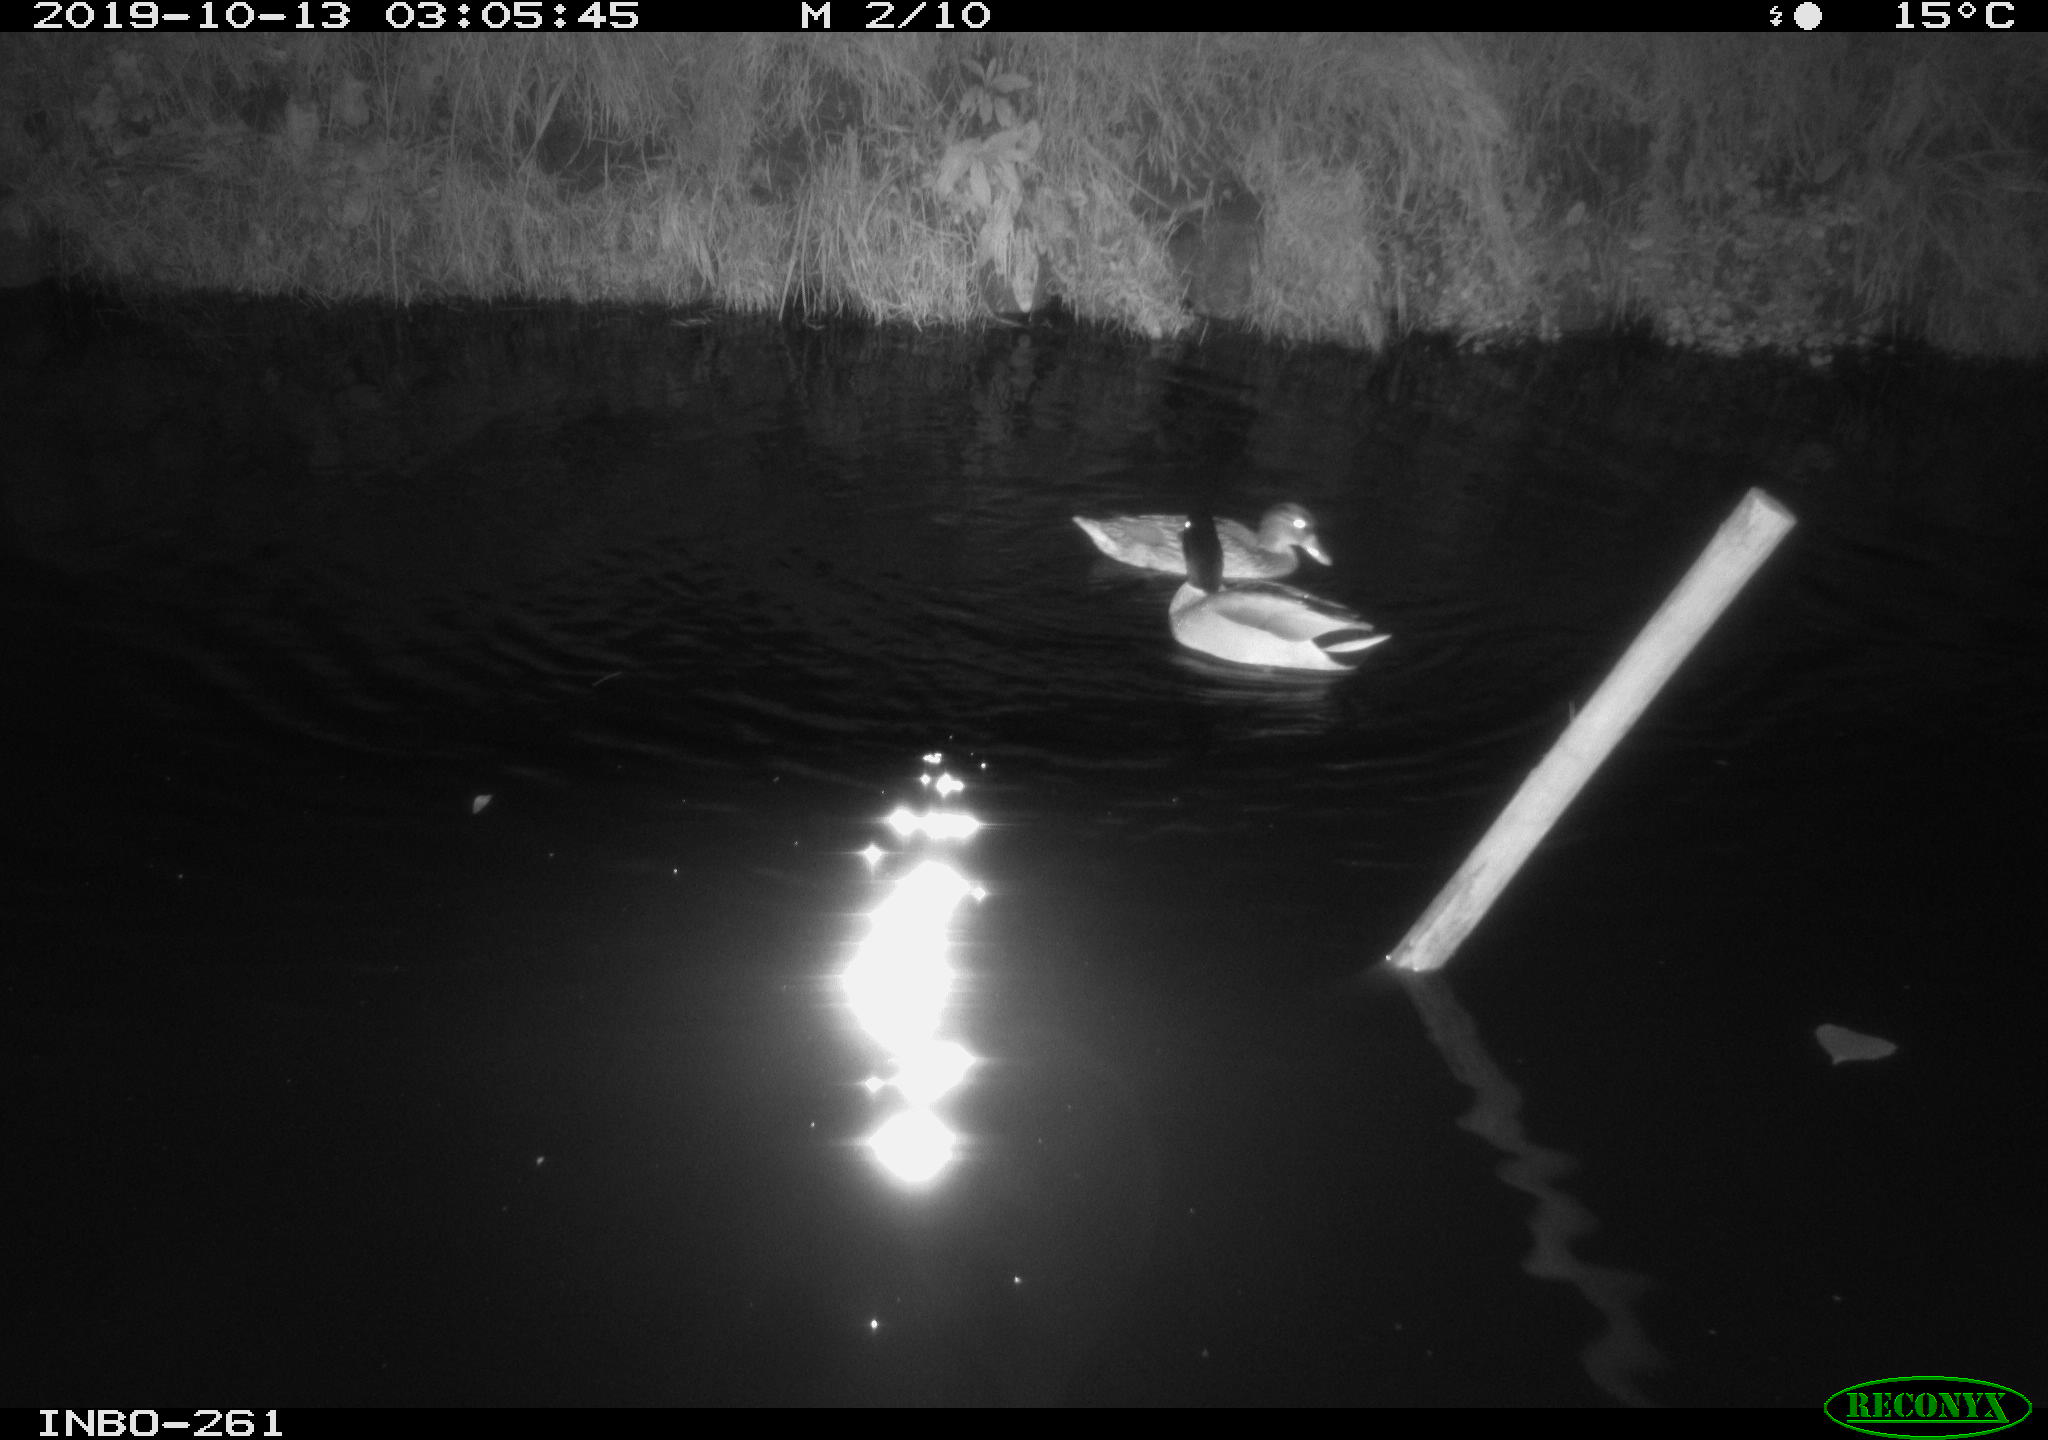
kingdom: Animalia
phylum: Chordata
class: Aves
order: Anseriformes
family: Anatidae
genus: Anas
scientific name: Anas platyrhynchos
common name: Mallard
